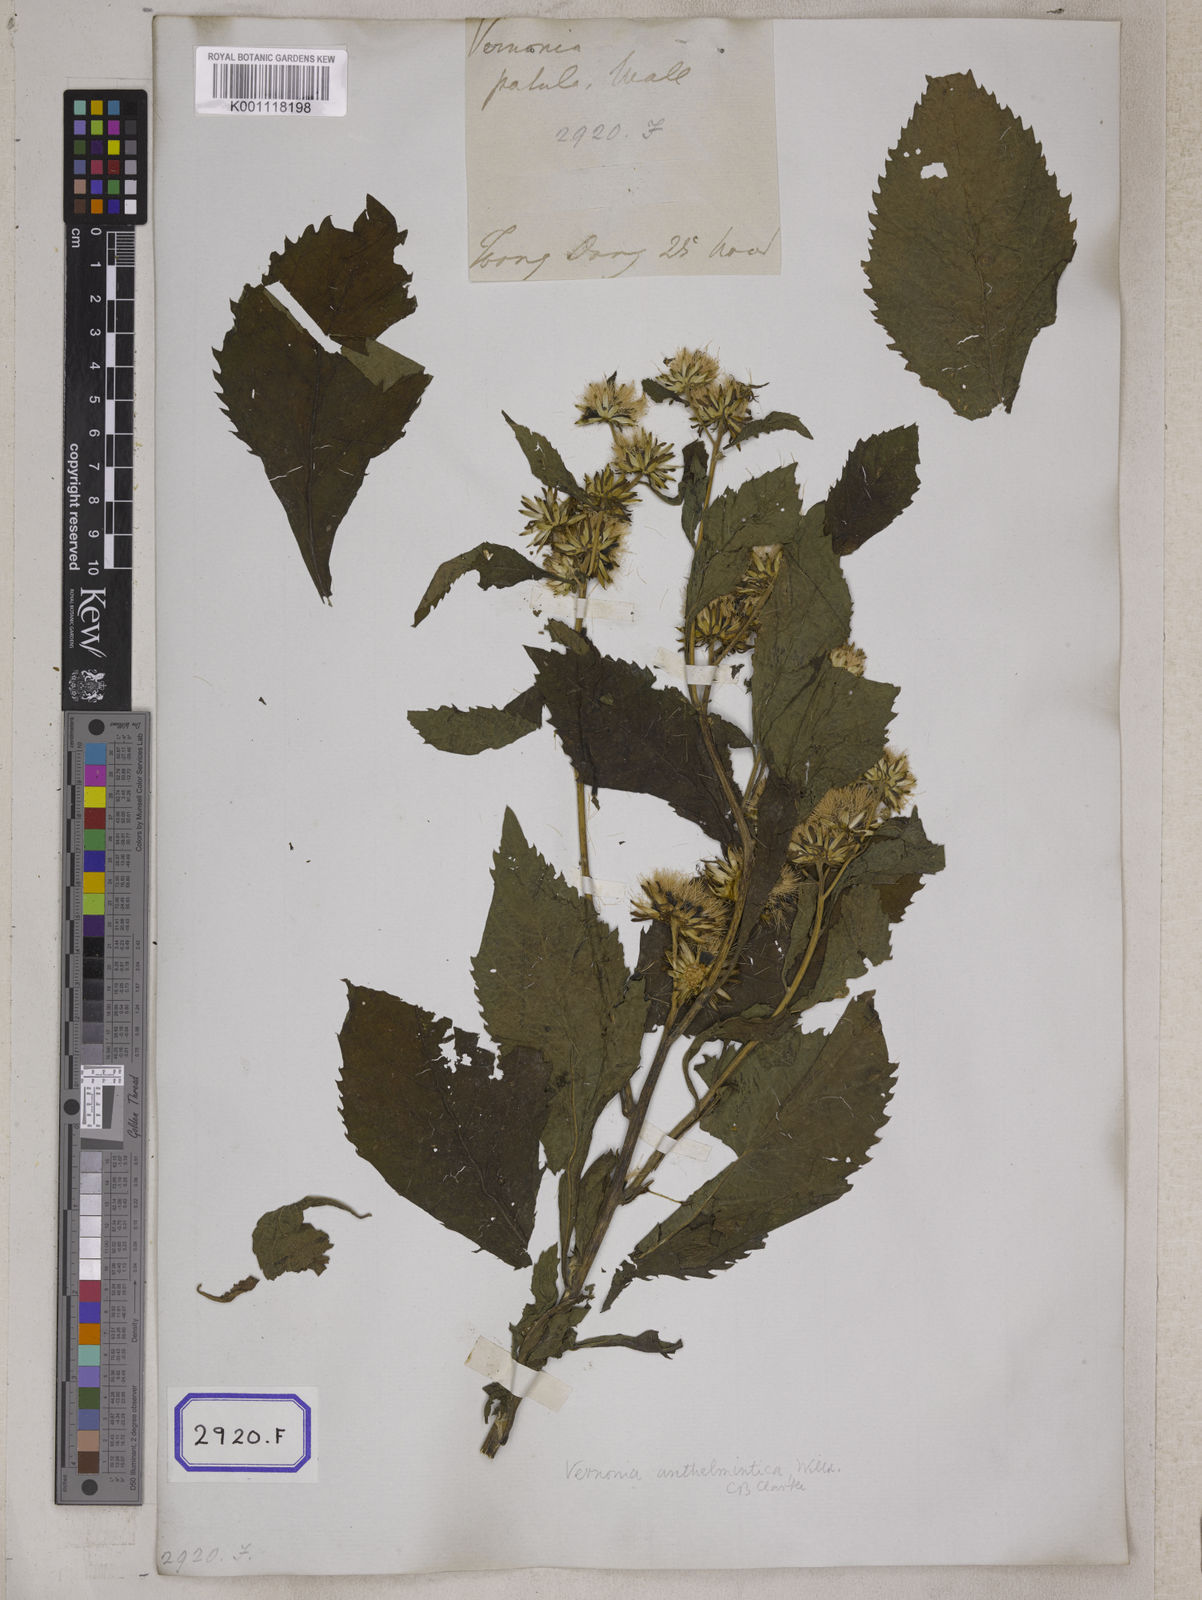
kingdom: Plantae
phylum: Tracheophyta
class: Magnoliopsida
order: Asterales
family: Asteraceae
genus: Baccharoides
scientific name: Baccharoides anthelmintica
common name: Kinka-oil
